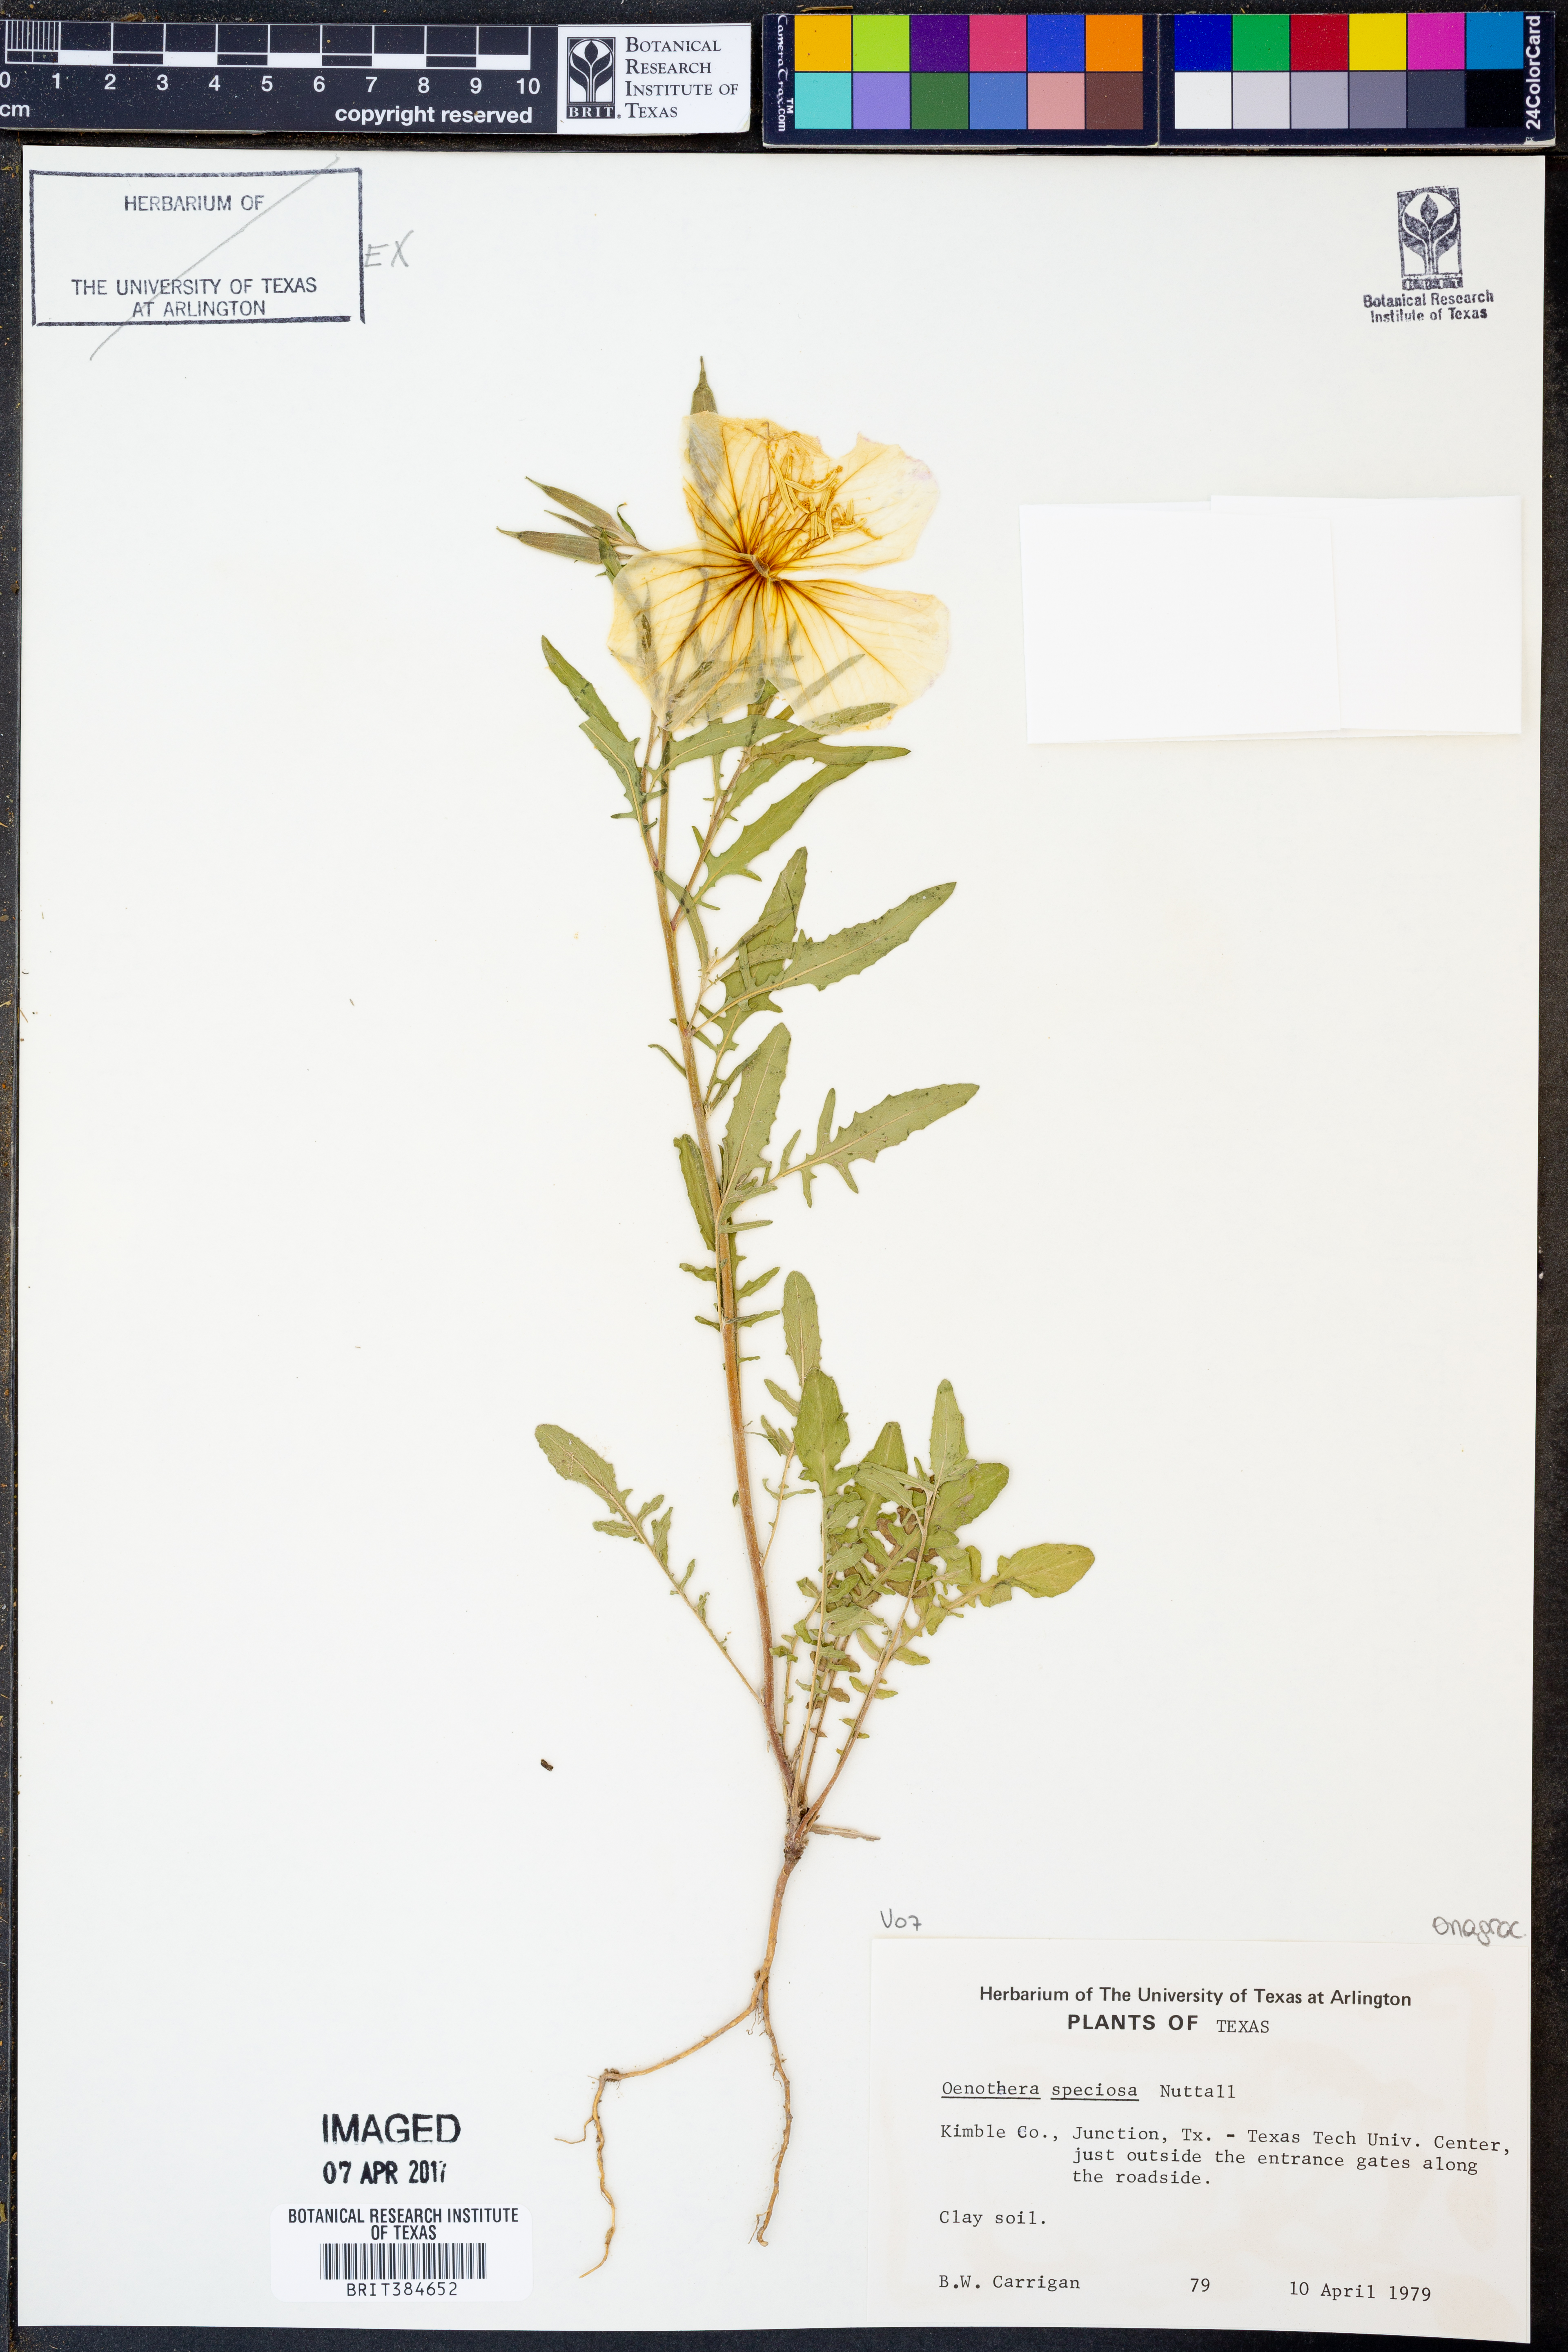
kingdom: Plantae
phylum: Tracheophyta
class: Magnoliopsida
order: Myrtales
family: Onagraceae
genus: Oenothera
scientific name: Oenothera speciosa
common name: White evening-primrose
